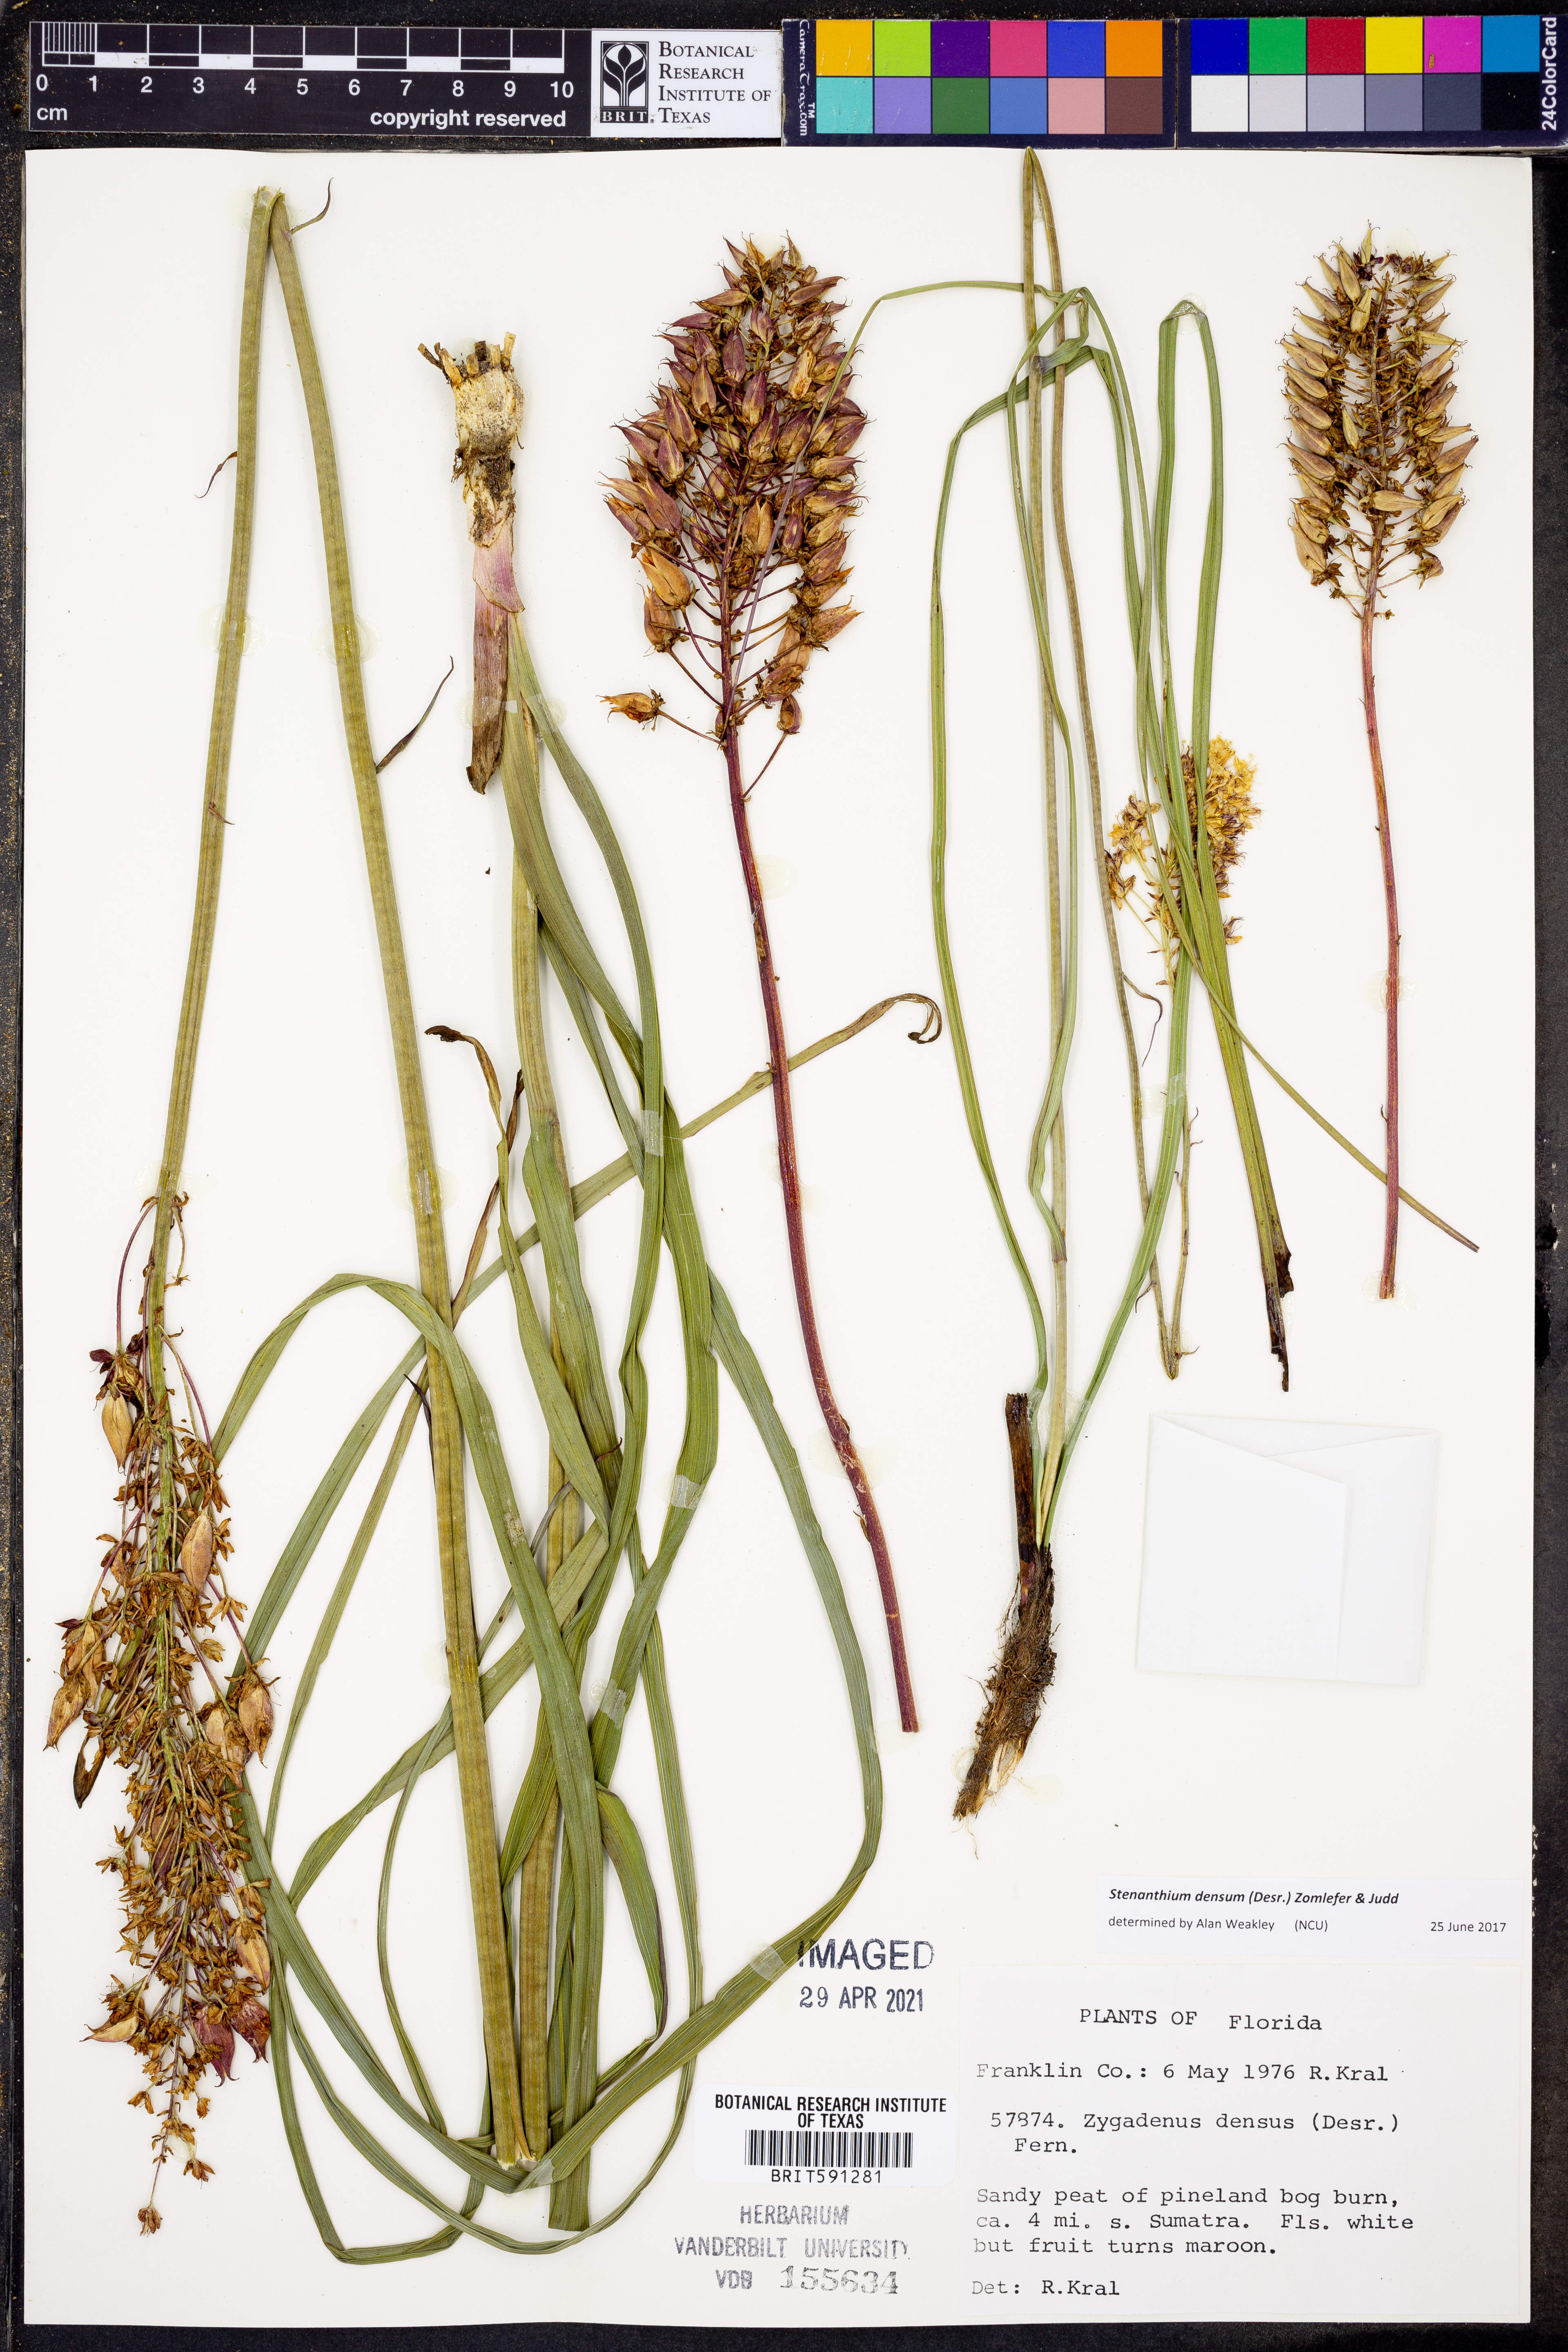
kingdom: Plantae
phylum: Tracheophyta
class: Liliopsida
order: Liliales
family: Melanthiaceae
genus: Stenanthium
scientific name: Stenanthium densum
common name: Crow-poison
